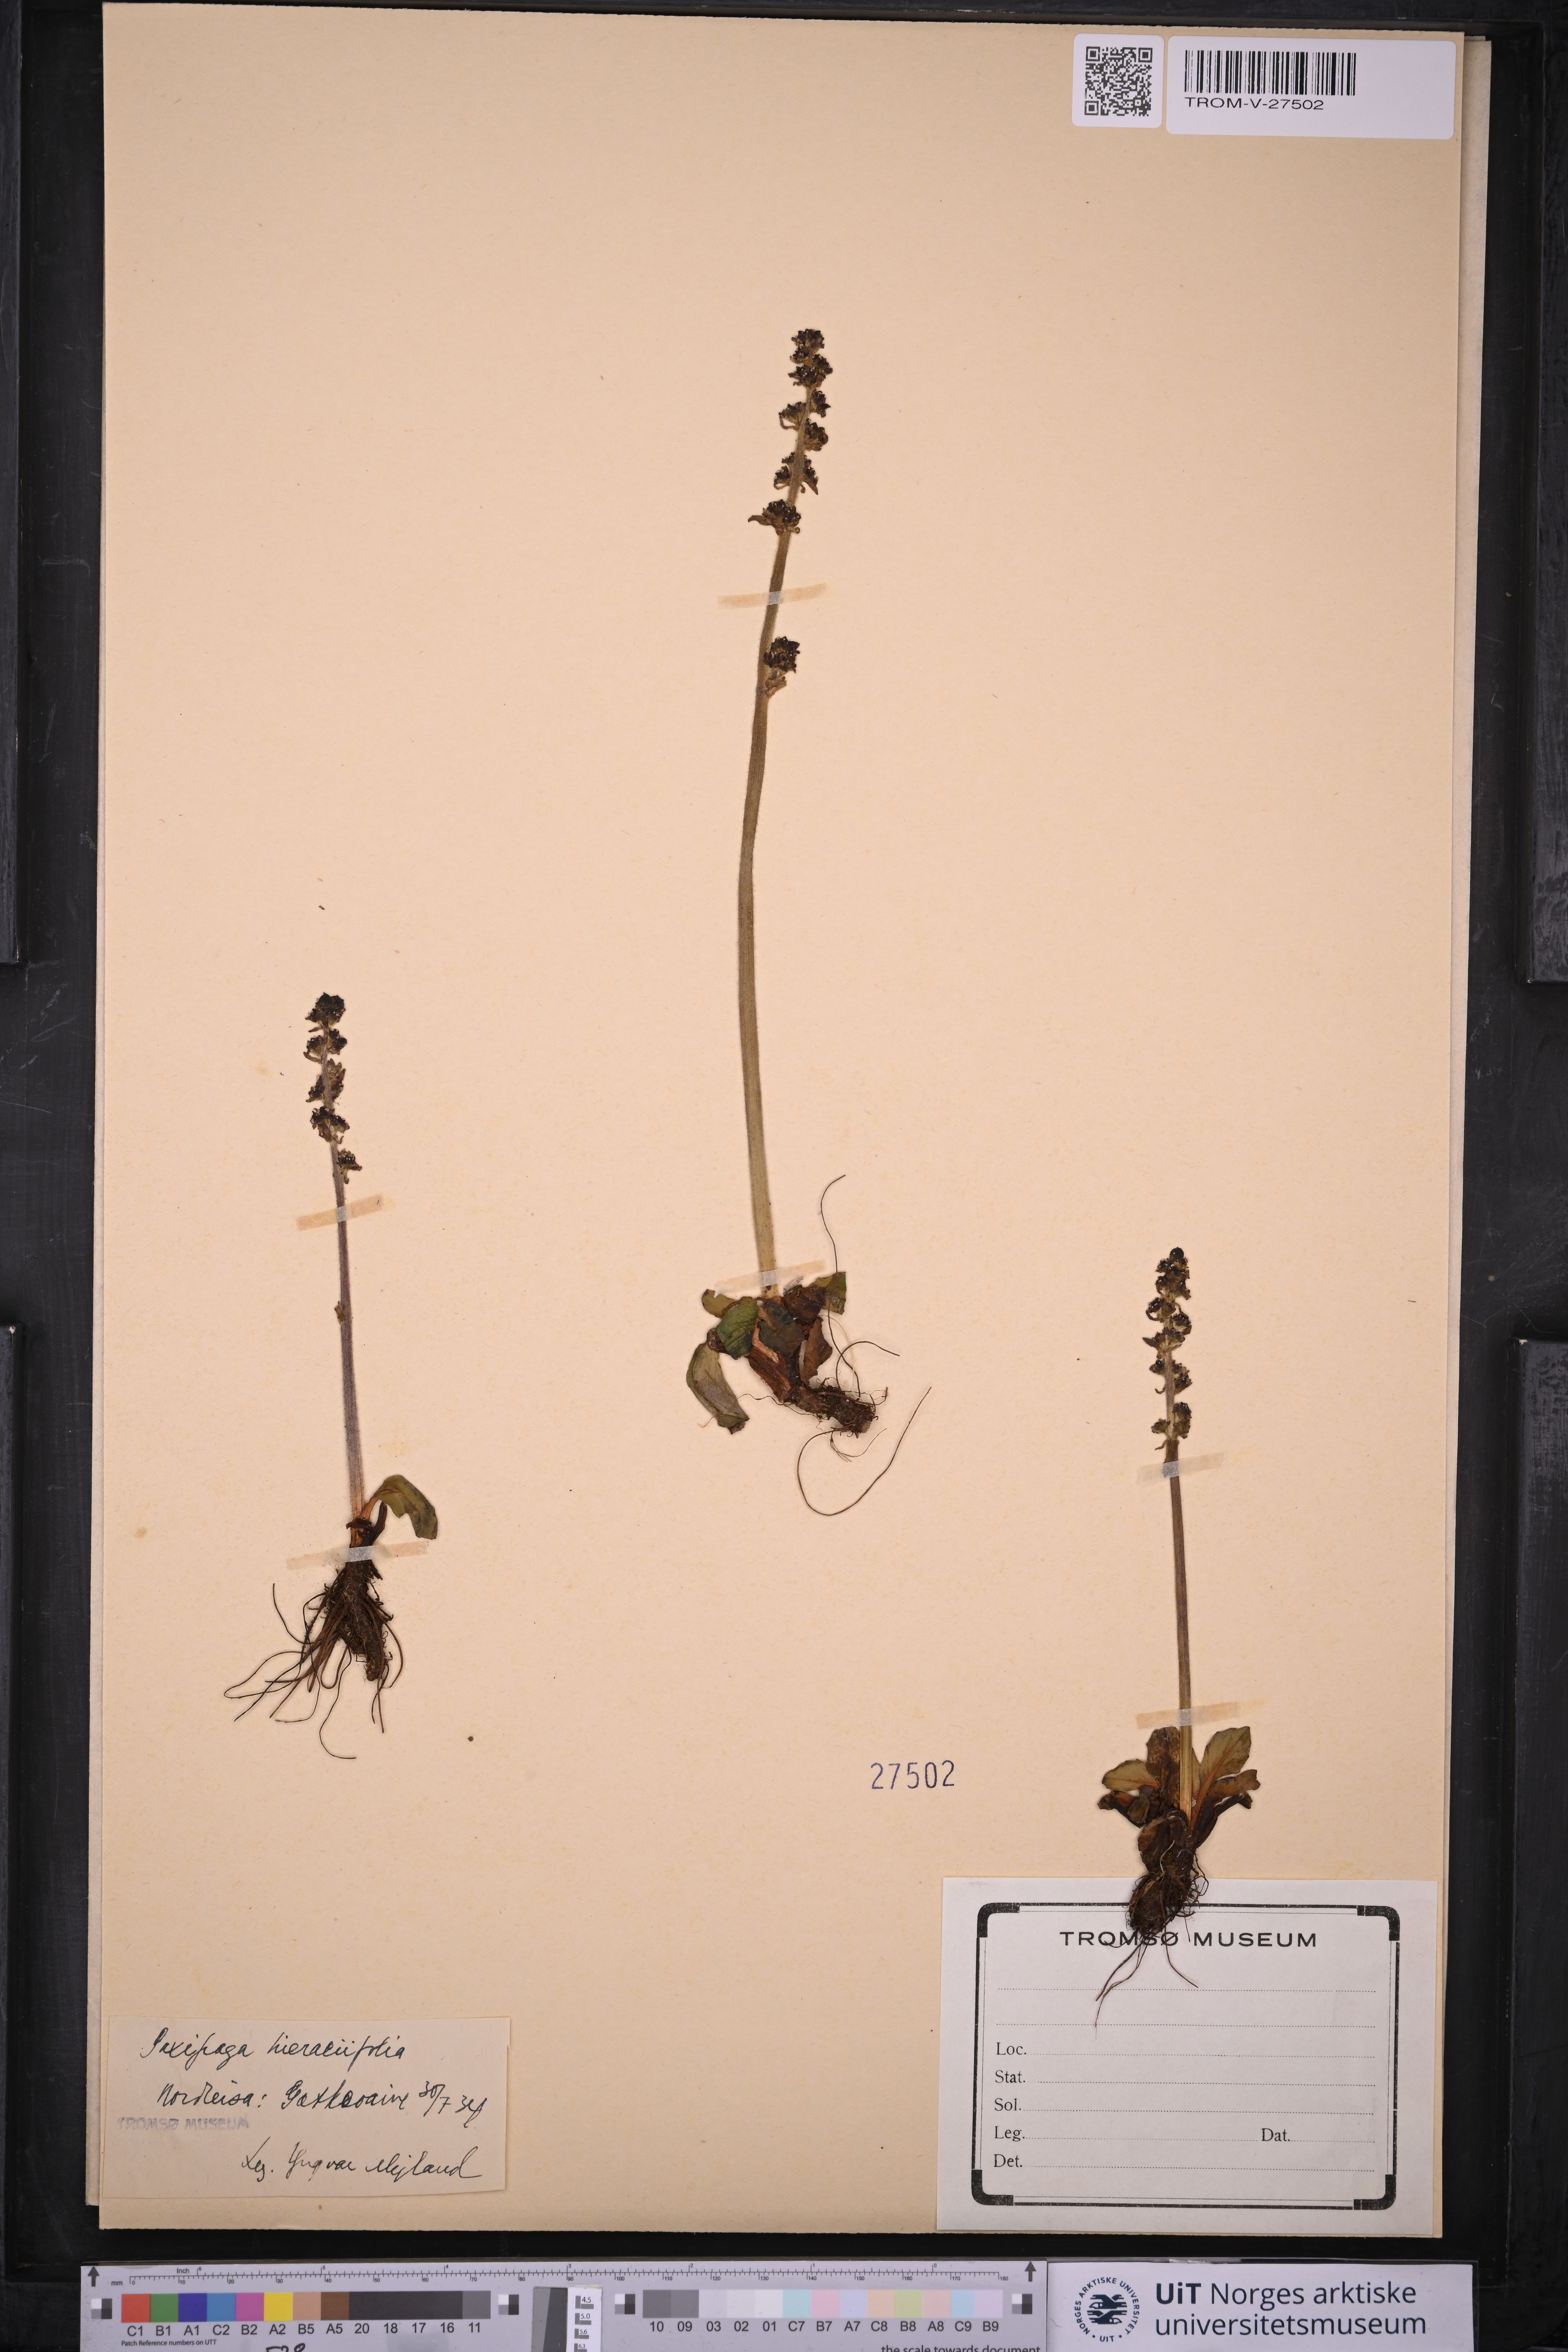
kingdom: Plantae
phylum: Tracheophyta
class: Magnoliopsida
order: Saxifragales
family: Saxifragaceae
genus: Micranthes
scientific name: Micranthes hieraciifolia
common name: Hawkweed-leaved saxifrage
